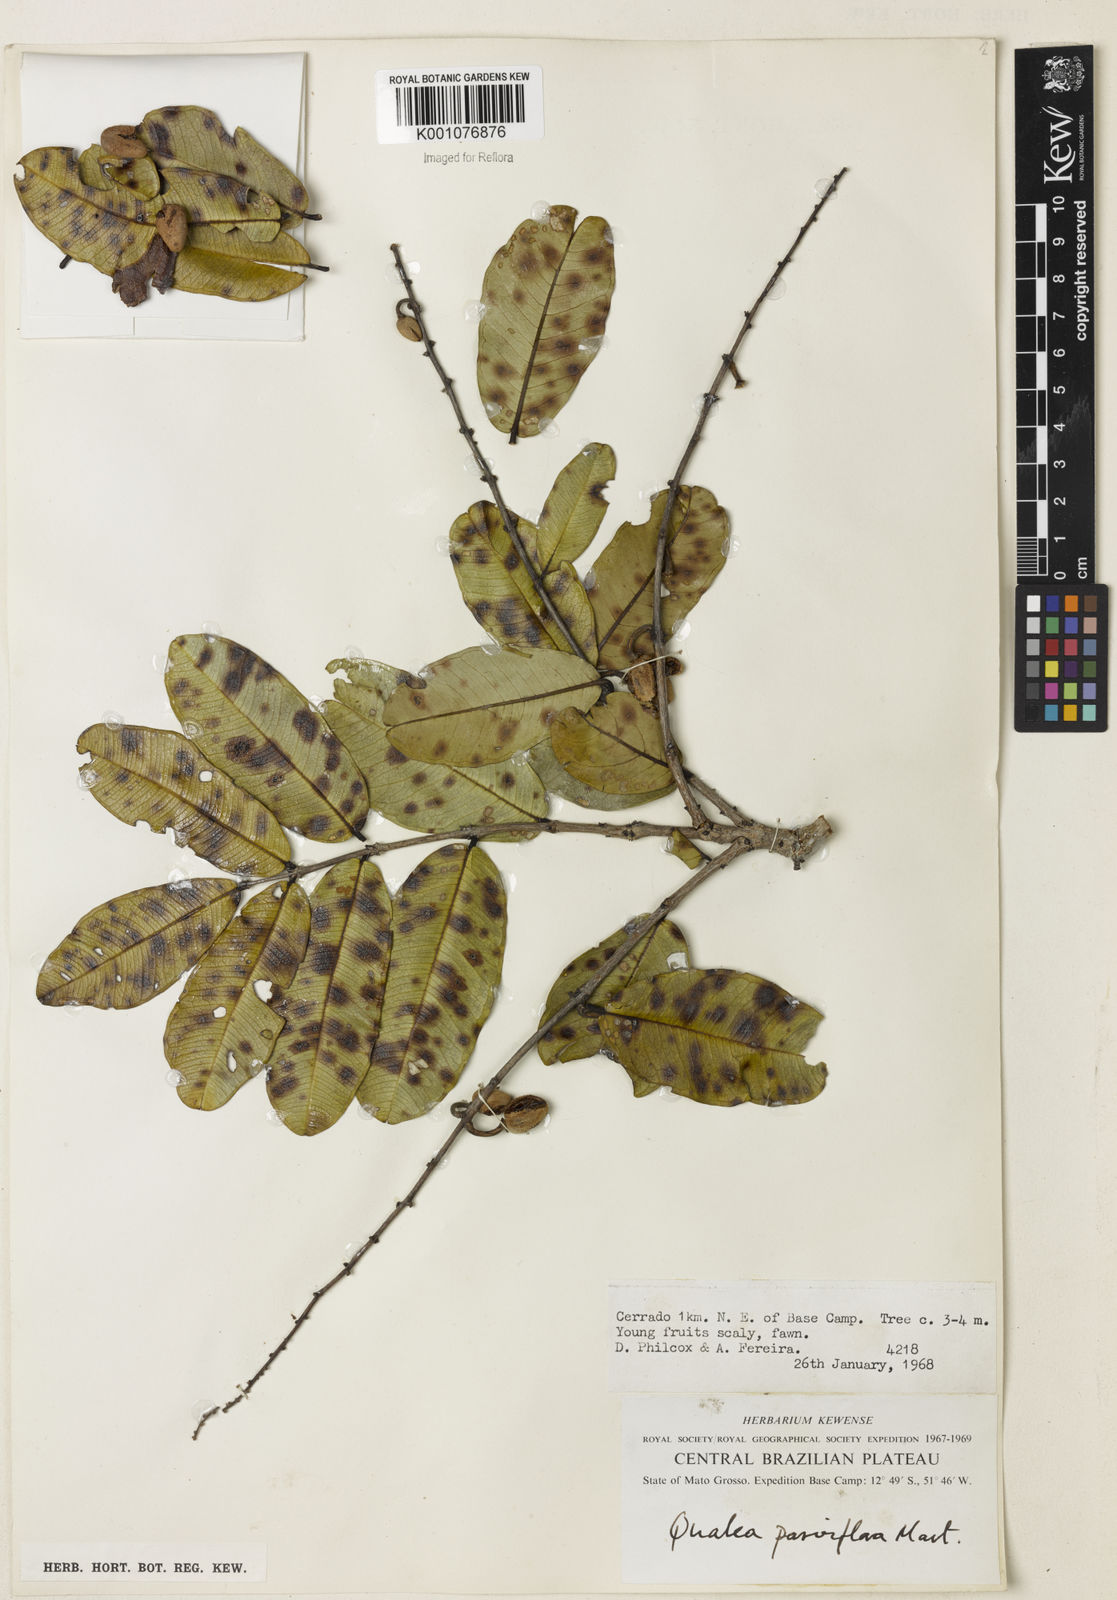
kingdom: Plantae
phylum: Tracheophyta
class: Magnoliopsida
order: Myrtales
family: Vochysiaceae
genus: Qualea
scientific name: Qualea parviflora
